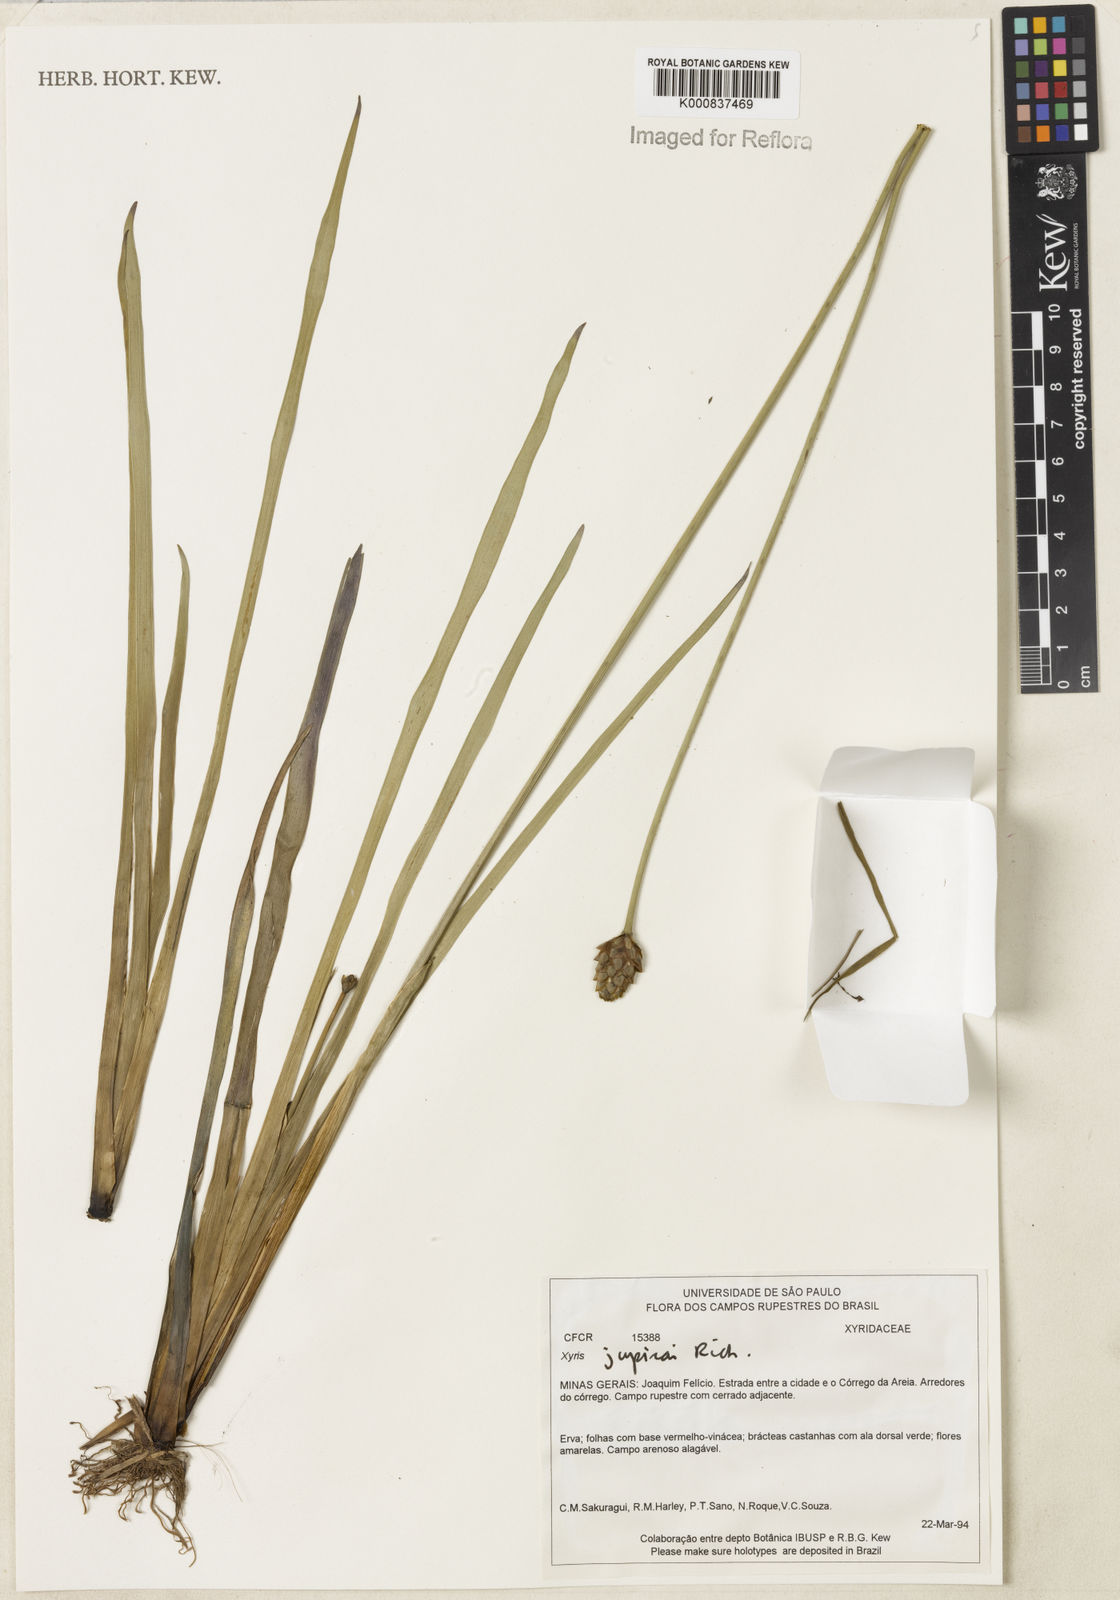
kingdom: Plantae
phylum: Tracheophyta
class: Liliopsida
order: Poales
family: Xyridaceae
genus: Xyris
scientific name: Xyris jupicai
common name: Richard's yelloweyed grass
